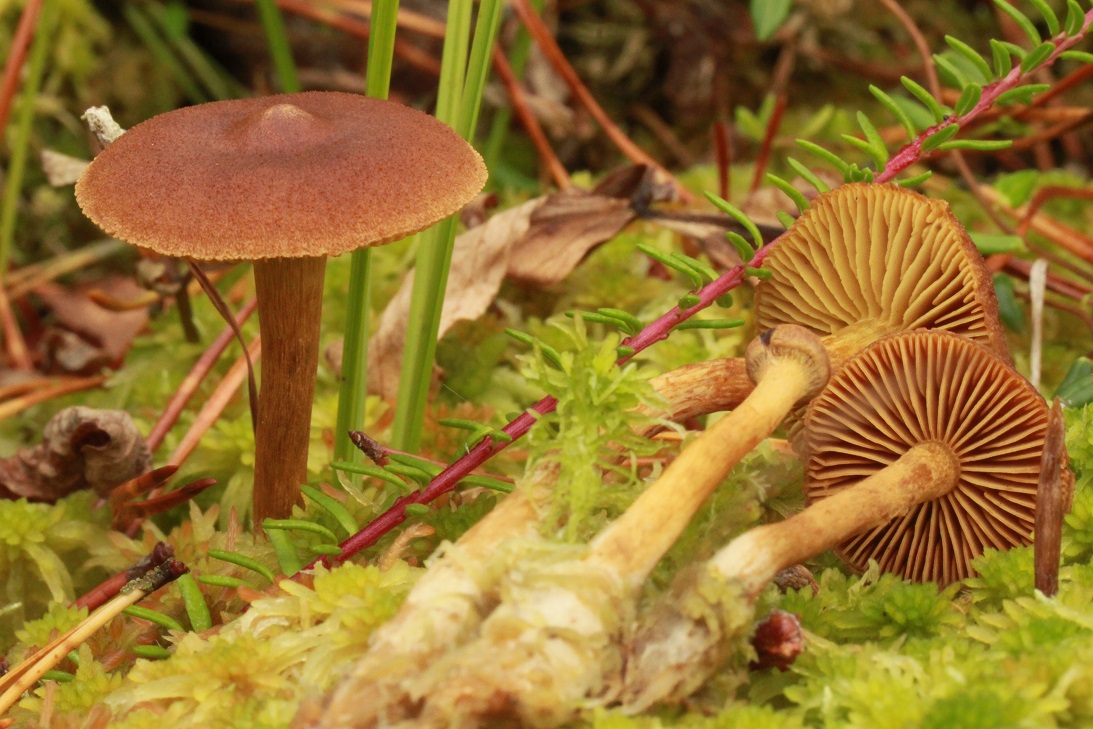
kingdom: Fungi
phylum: Basidiomycota
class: Agaricomycetes
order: Agaricales
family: Cortinariaceae
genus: Cortinarius
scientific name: Cortinarius subfusipes
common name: højmose-slørhat
